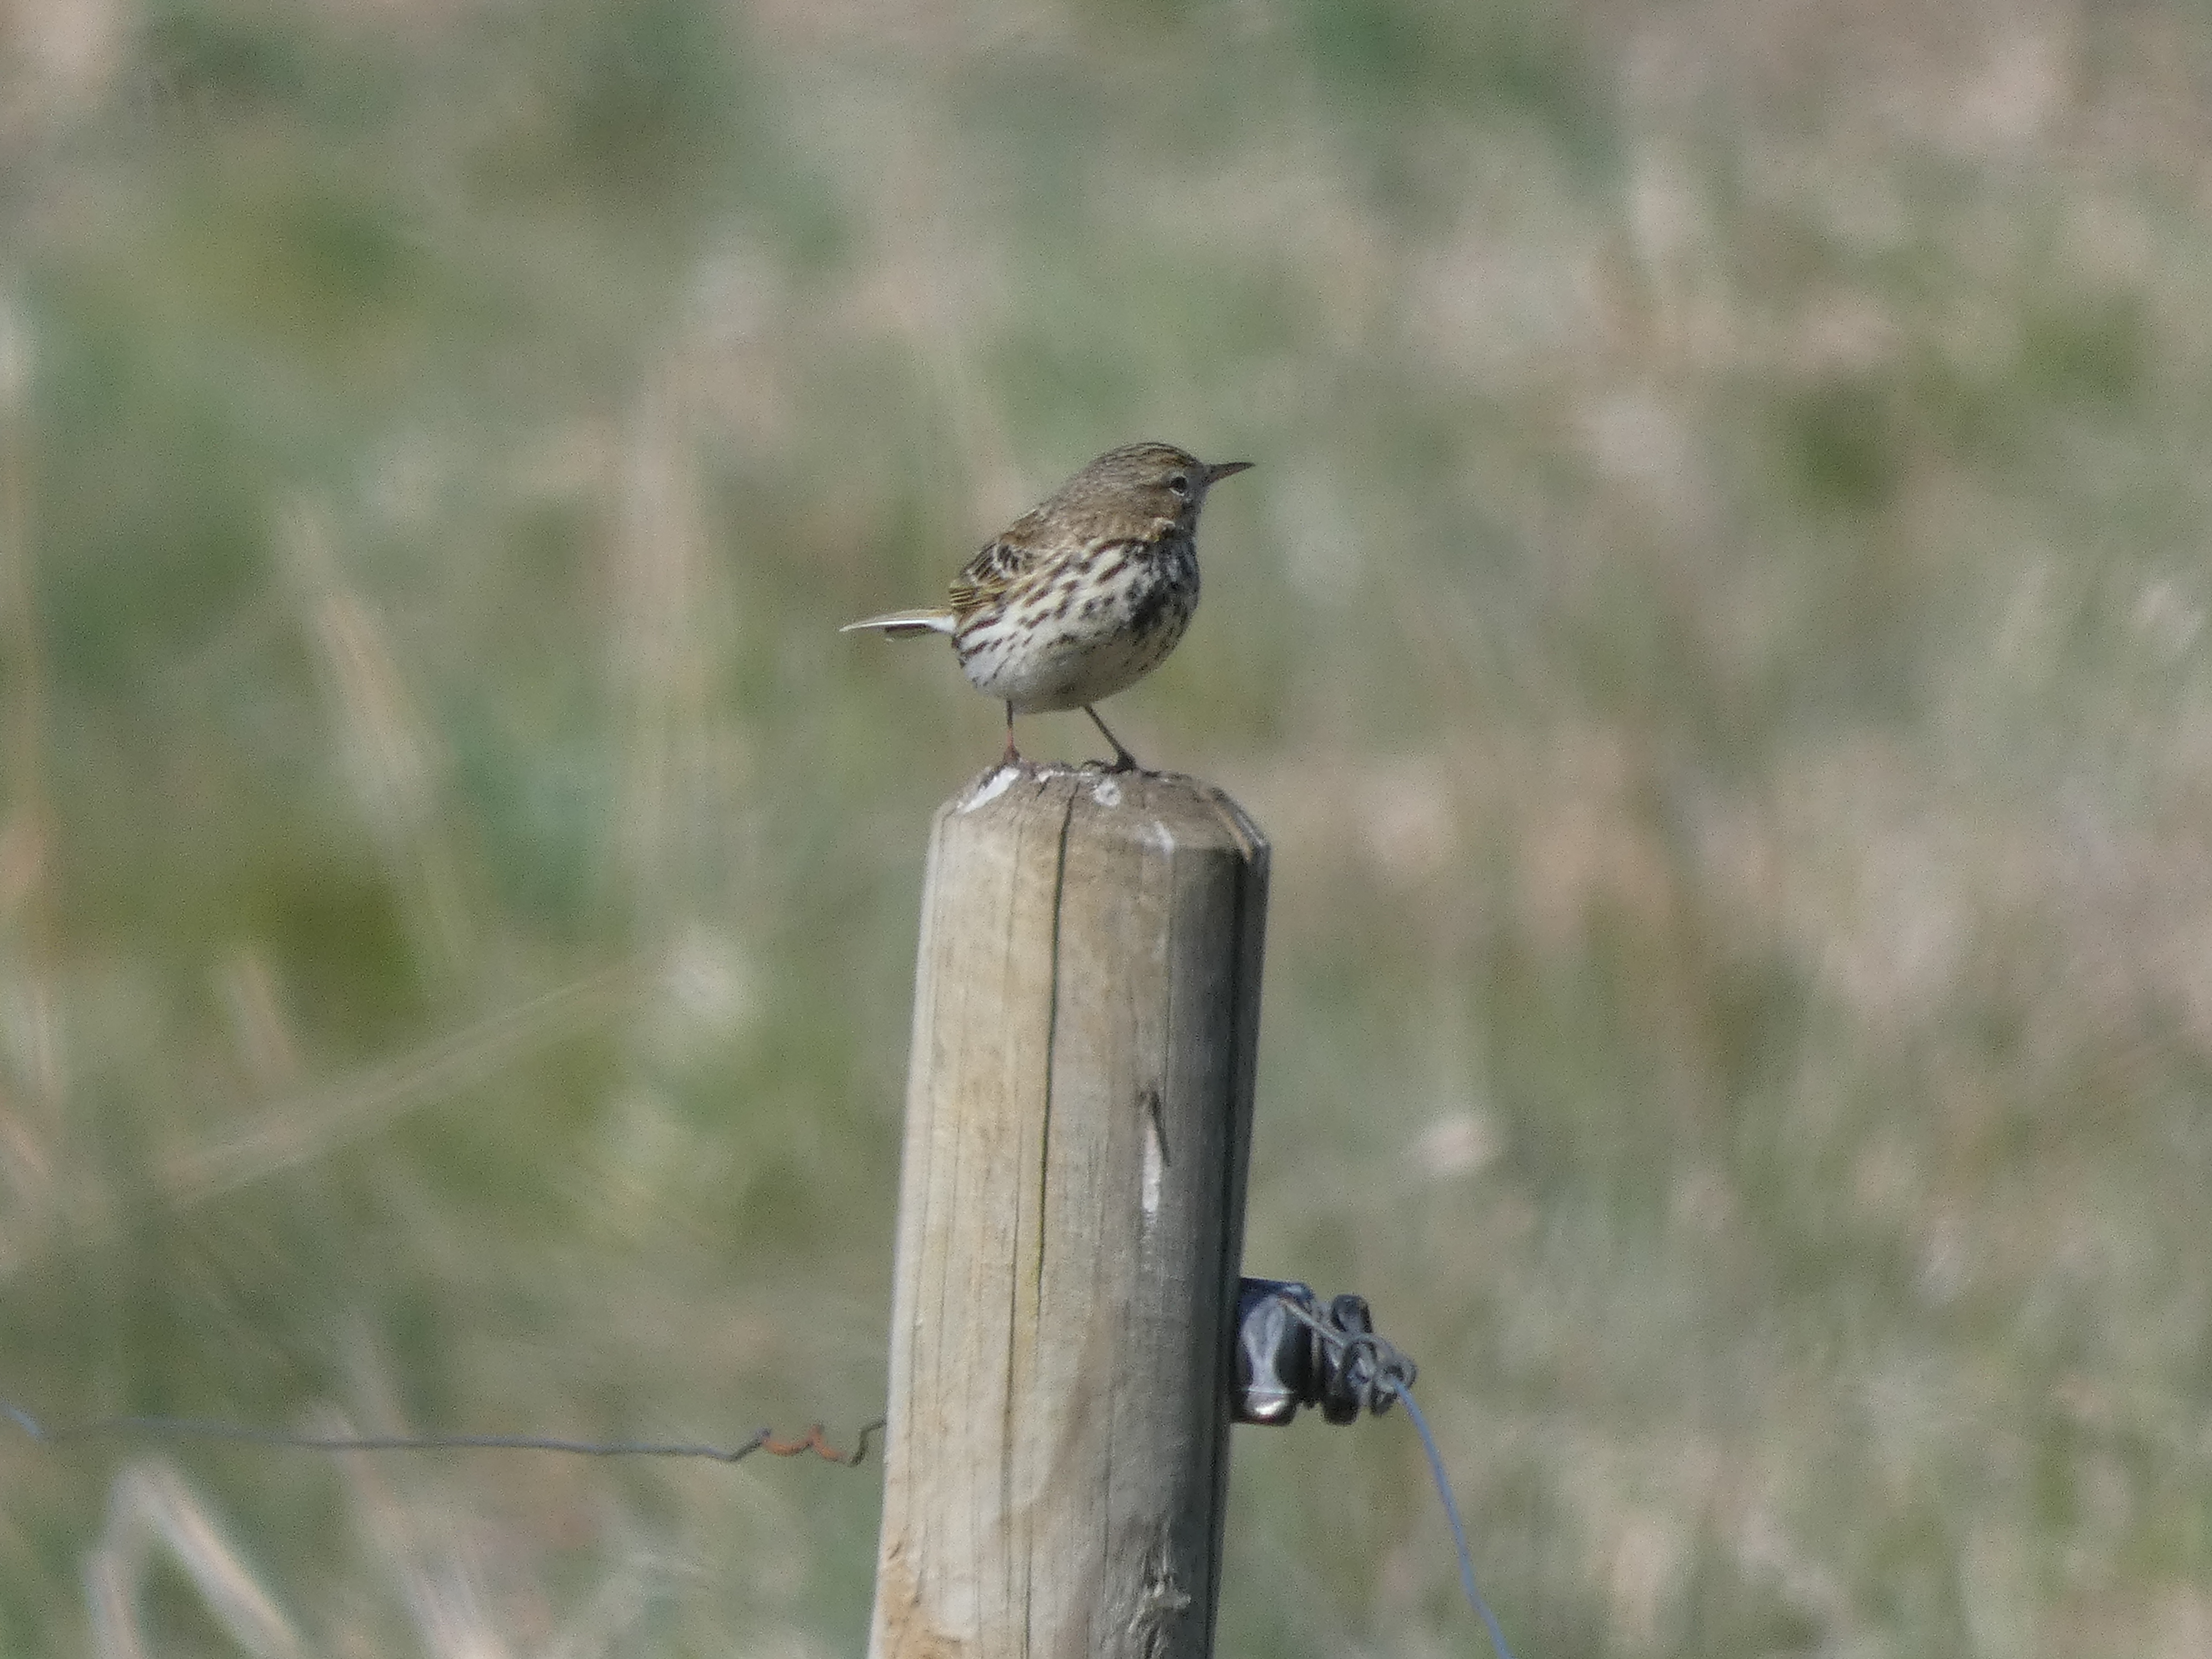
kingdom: Animalia
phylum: Chordata
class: Aves
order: Passeriformes
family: Motacillidae
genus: Anthus
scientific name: Anthus pratensis
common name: Engpiber
